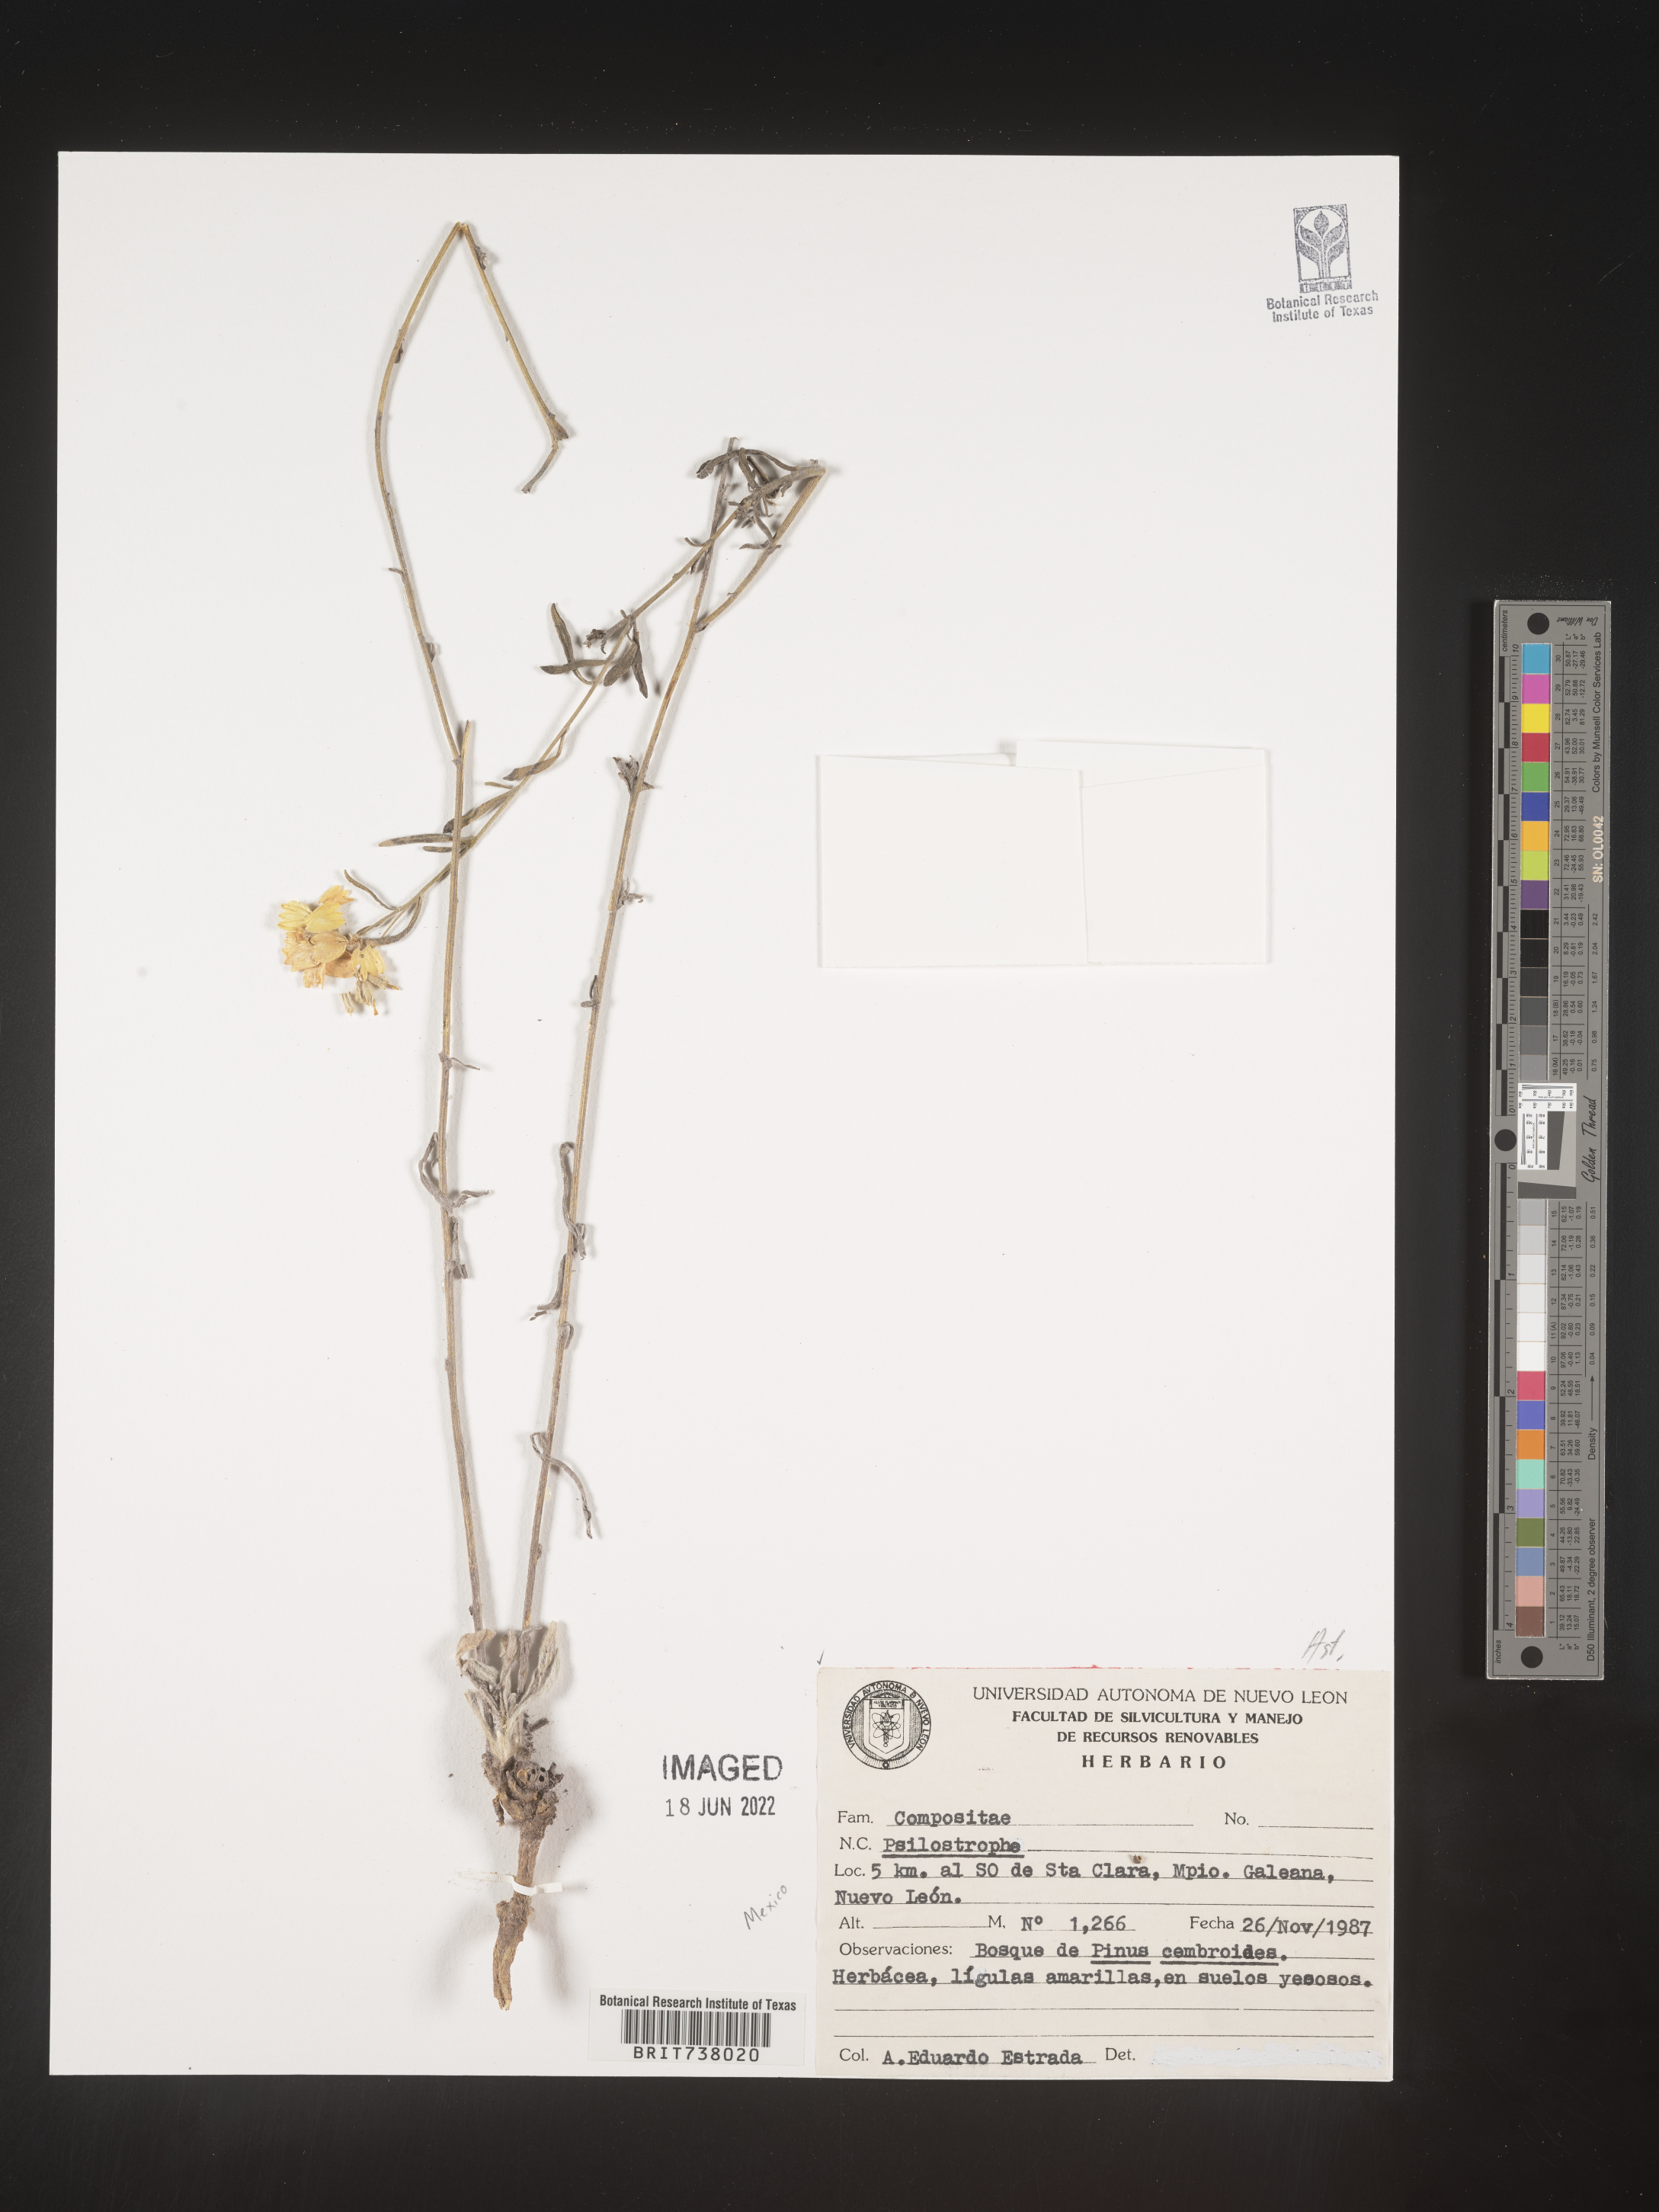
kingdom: Plantae
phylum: Tracheophyta
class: Magnoliopsida
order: Asterales
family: Asteraceae
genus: Psilostrophe
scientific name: Psilostrophe
